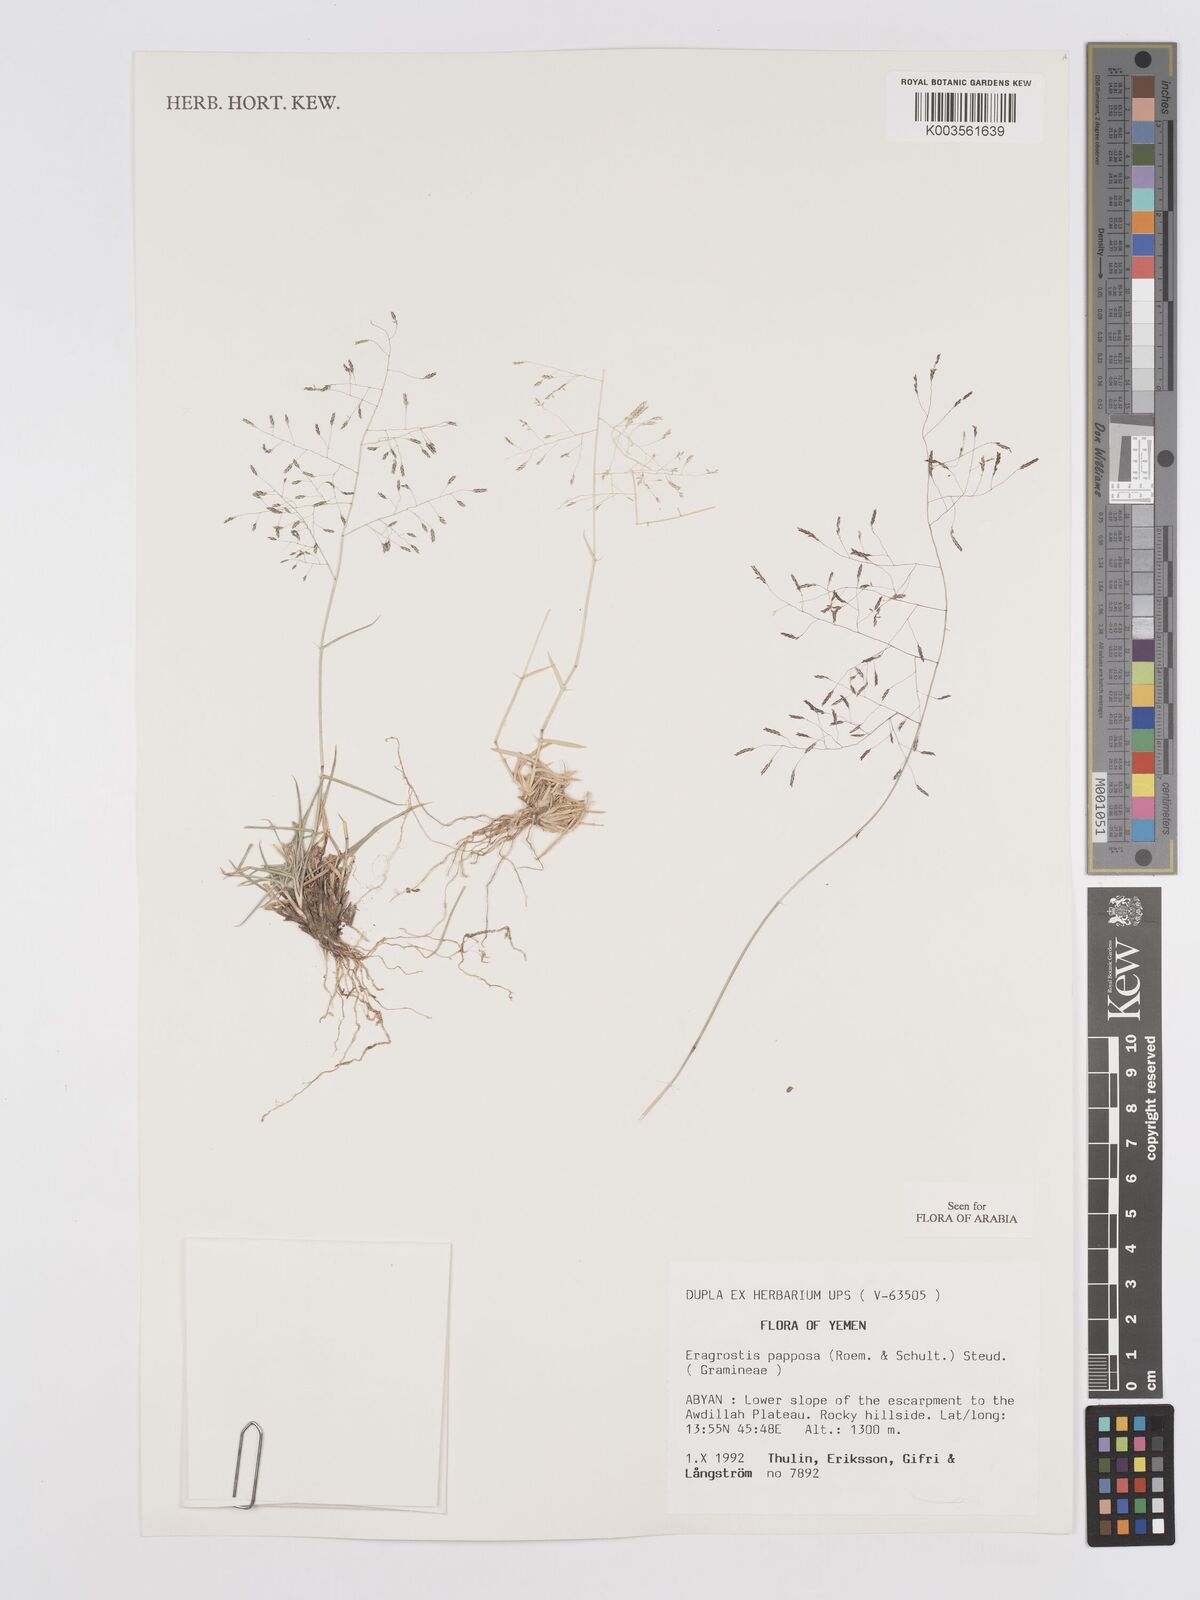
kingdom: Plantae
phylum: Tracheophyta
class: Liliopsida
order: Poales
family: Poaceae
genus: Eragrostis
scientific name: Eragrostis papposa
